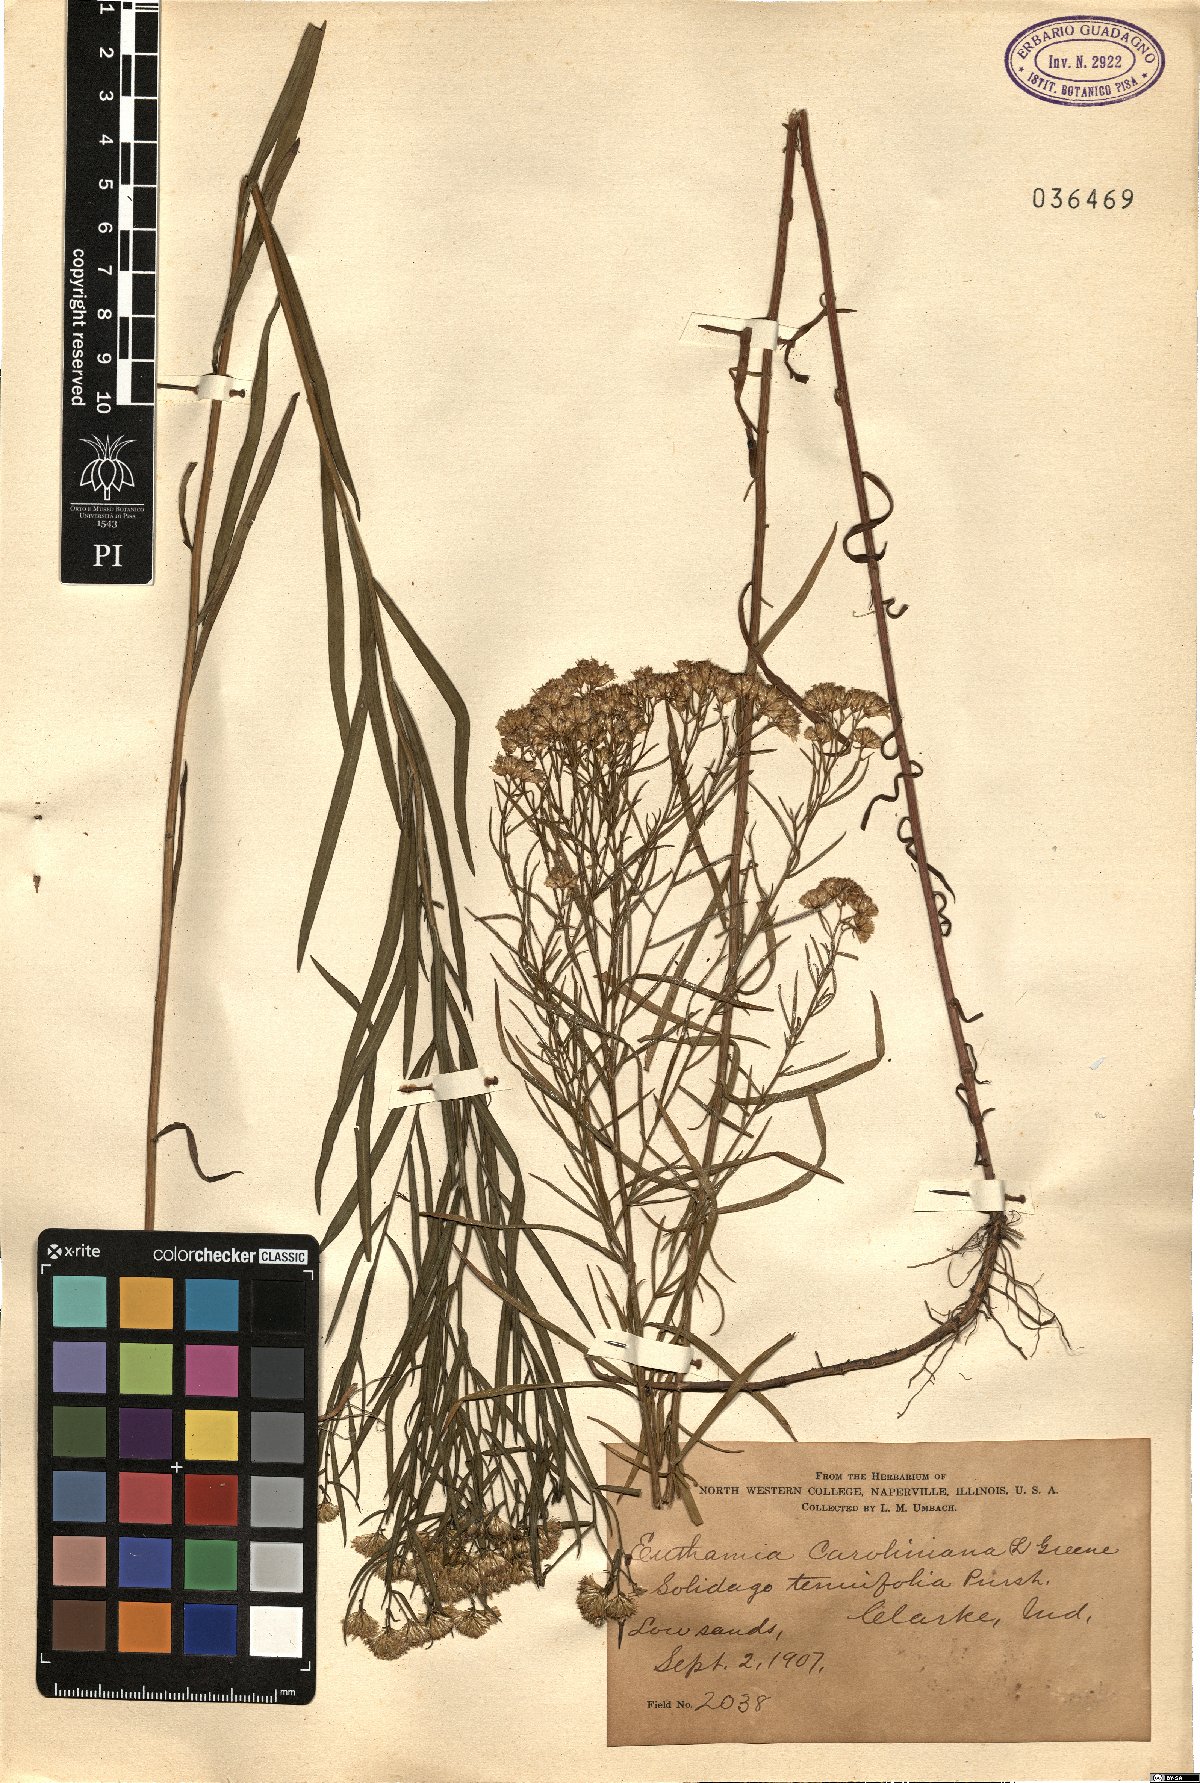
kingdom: Plantae
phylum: Tracheophyta
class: Magnoliopsida
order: Asterales
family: Asteraceae
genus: Euthamia
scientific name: Euthamia caroliniana
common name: Coastal plain goldentop
